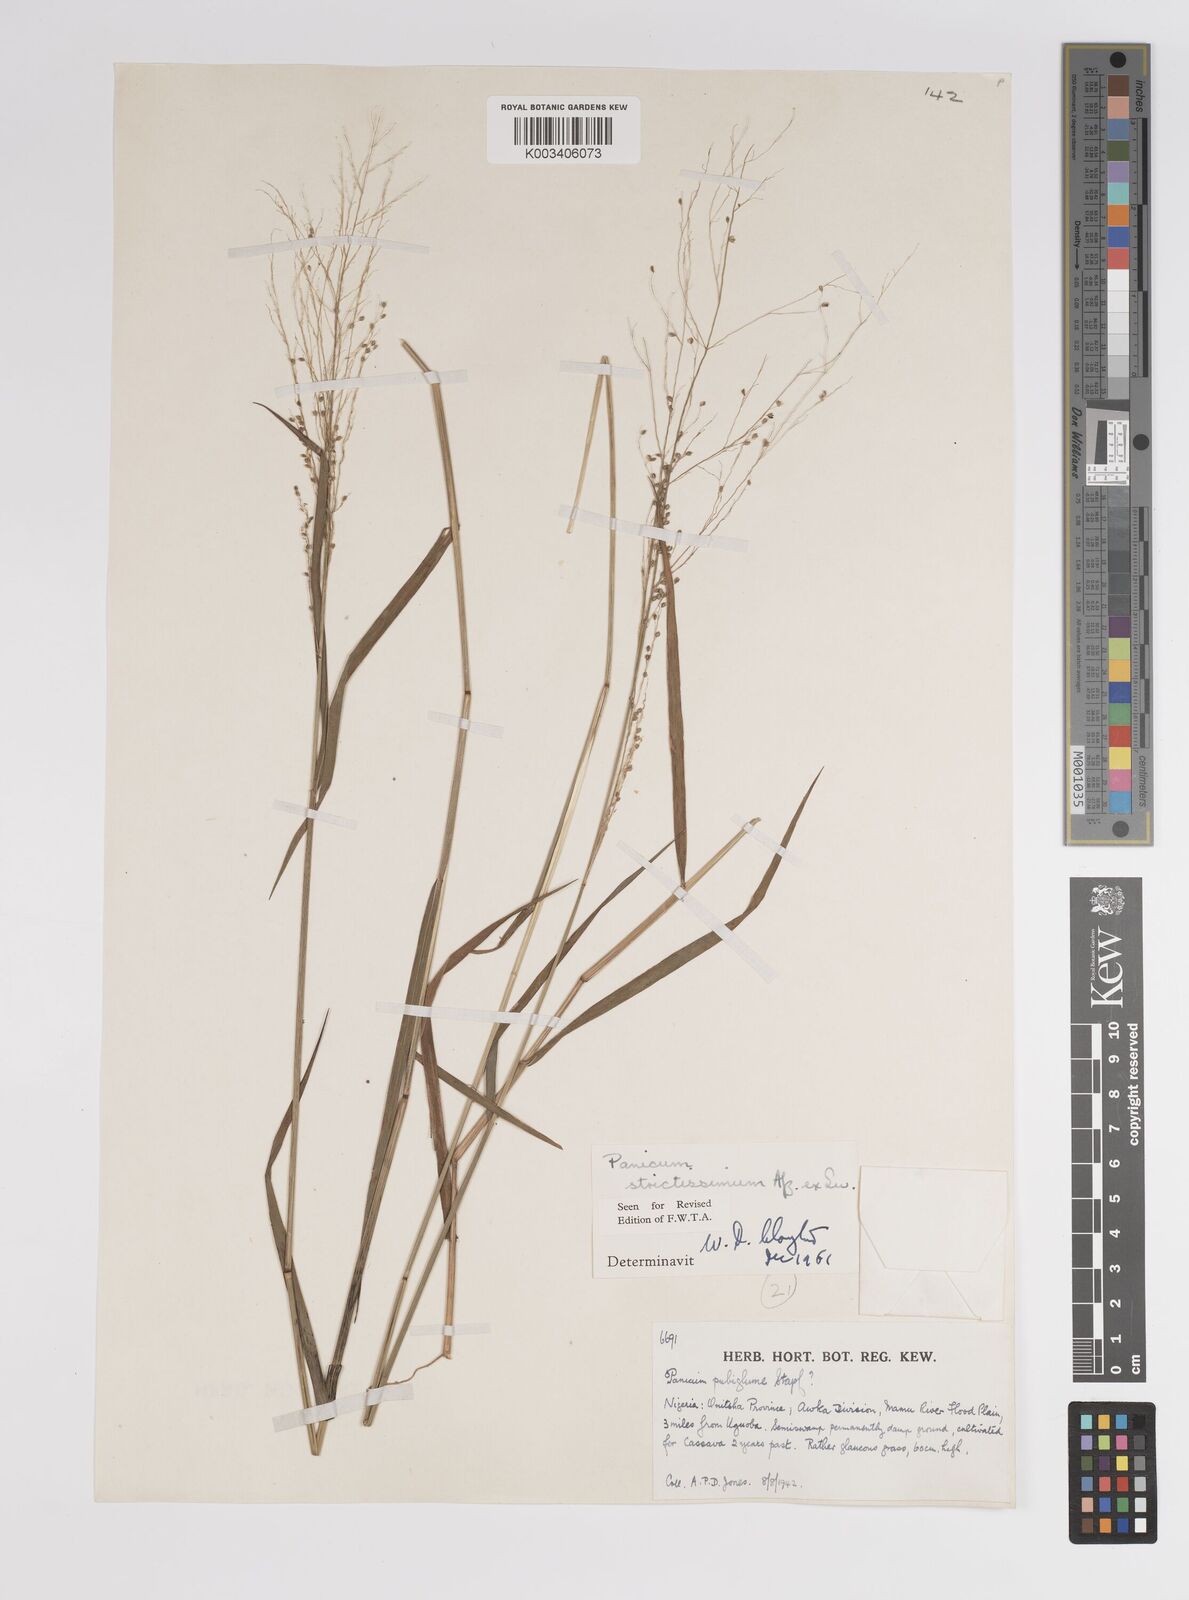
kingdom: Plantae
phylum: Tracheophyta
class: Liliopsida
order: Poales
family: Poaceae
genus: Panicum
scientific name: Panicum eickii
